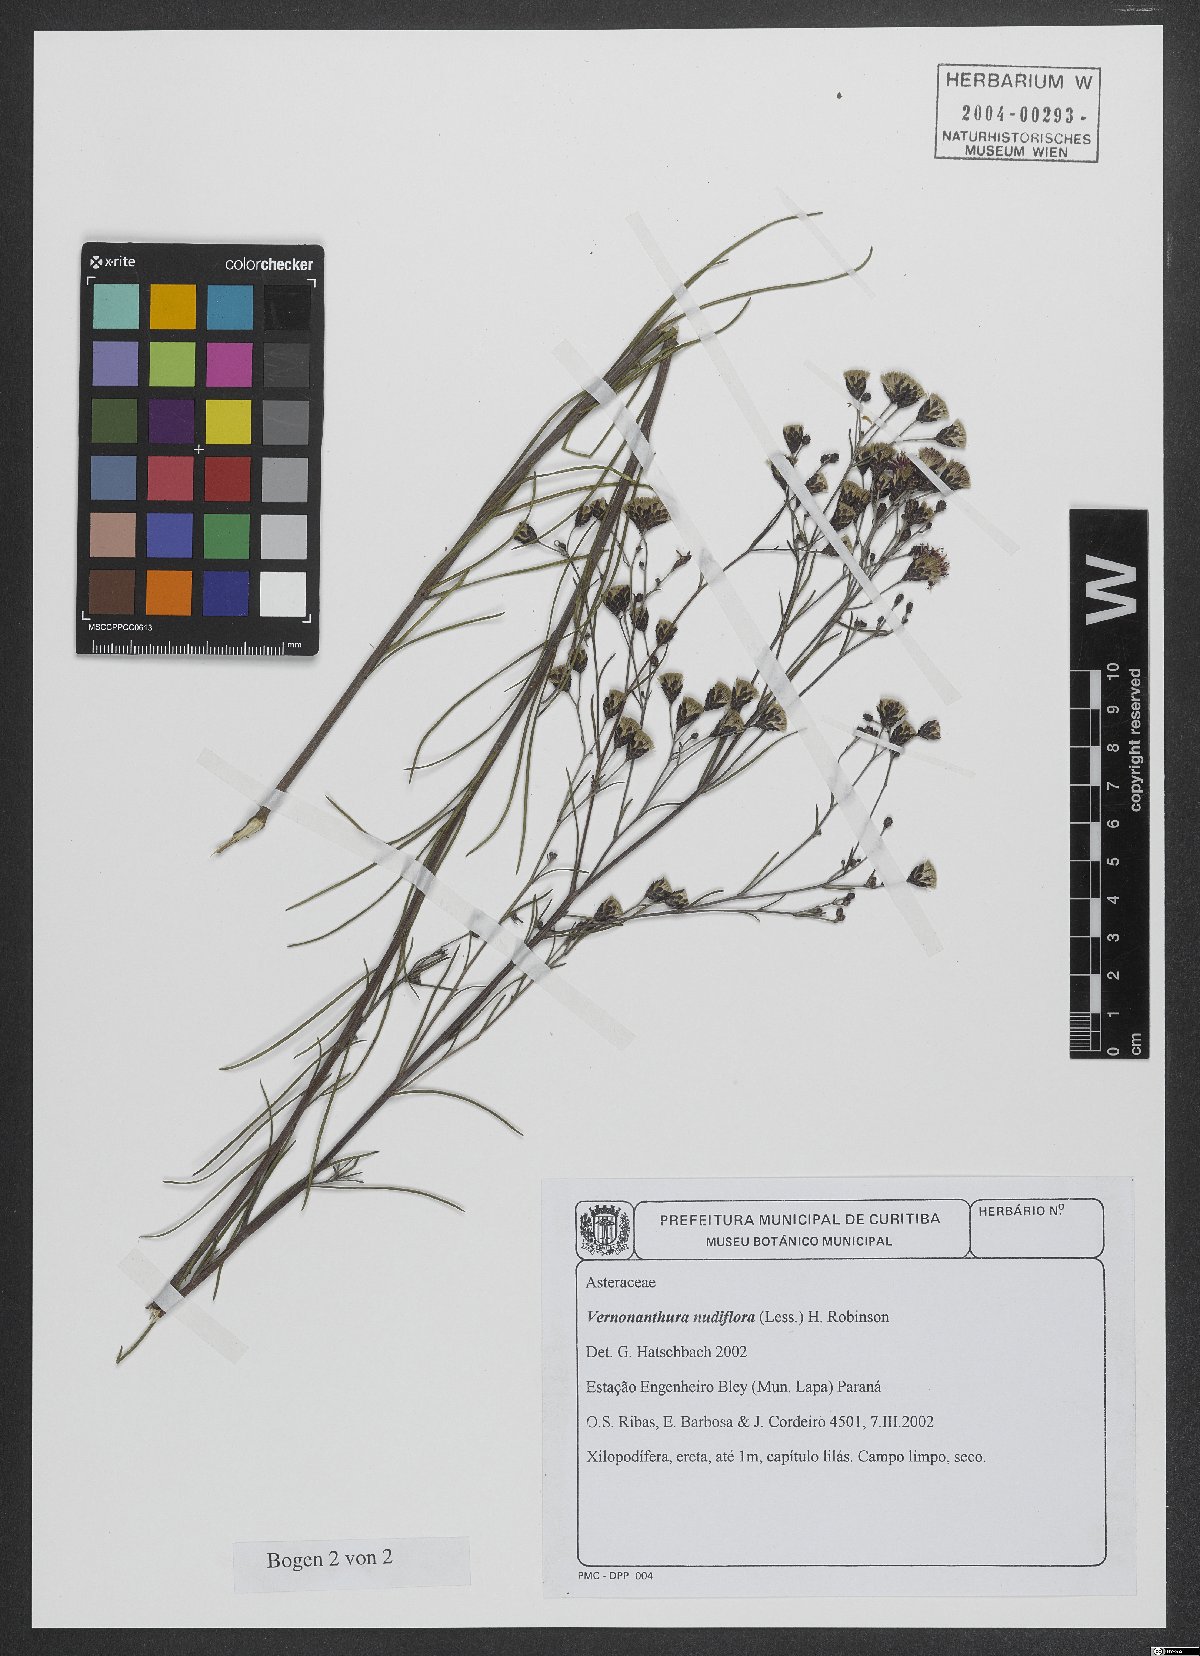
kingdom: Plantae
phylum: Tracheophyta
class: Magnoliopsida
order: Asterales
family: Asteraceae
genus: Vernonanthura
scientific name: Vernonanthura nudiflora
